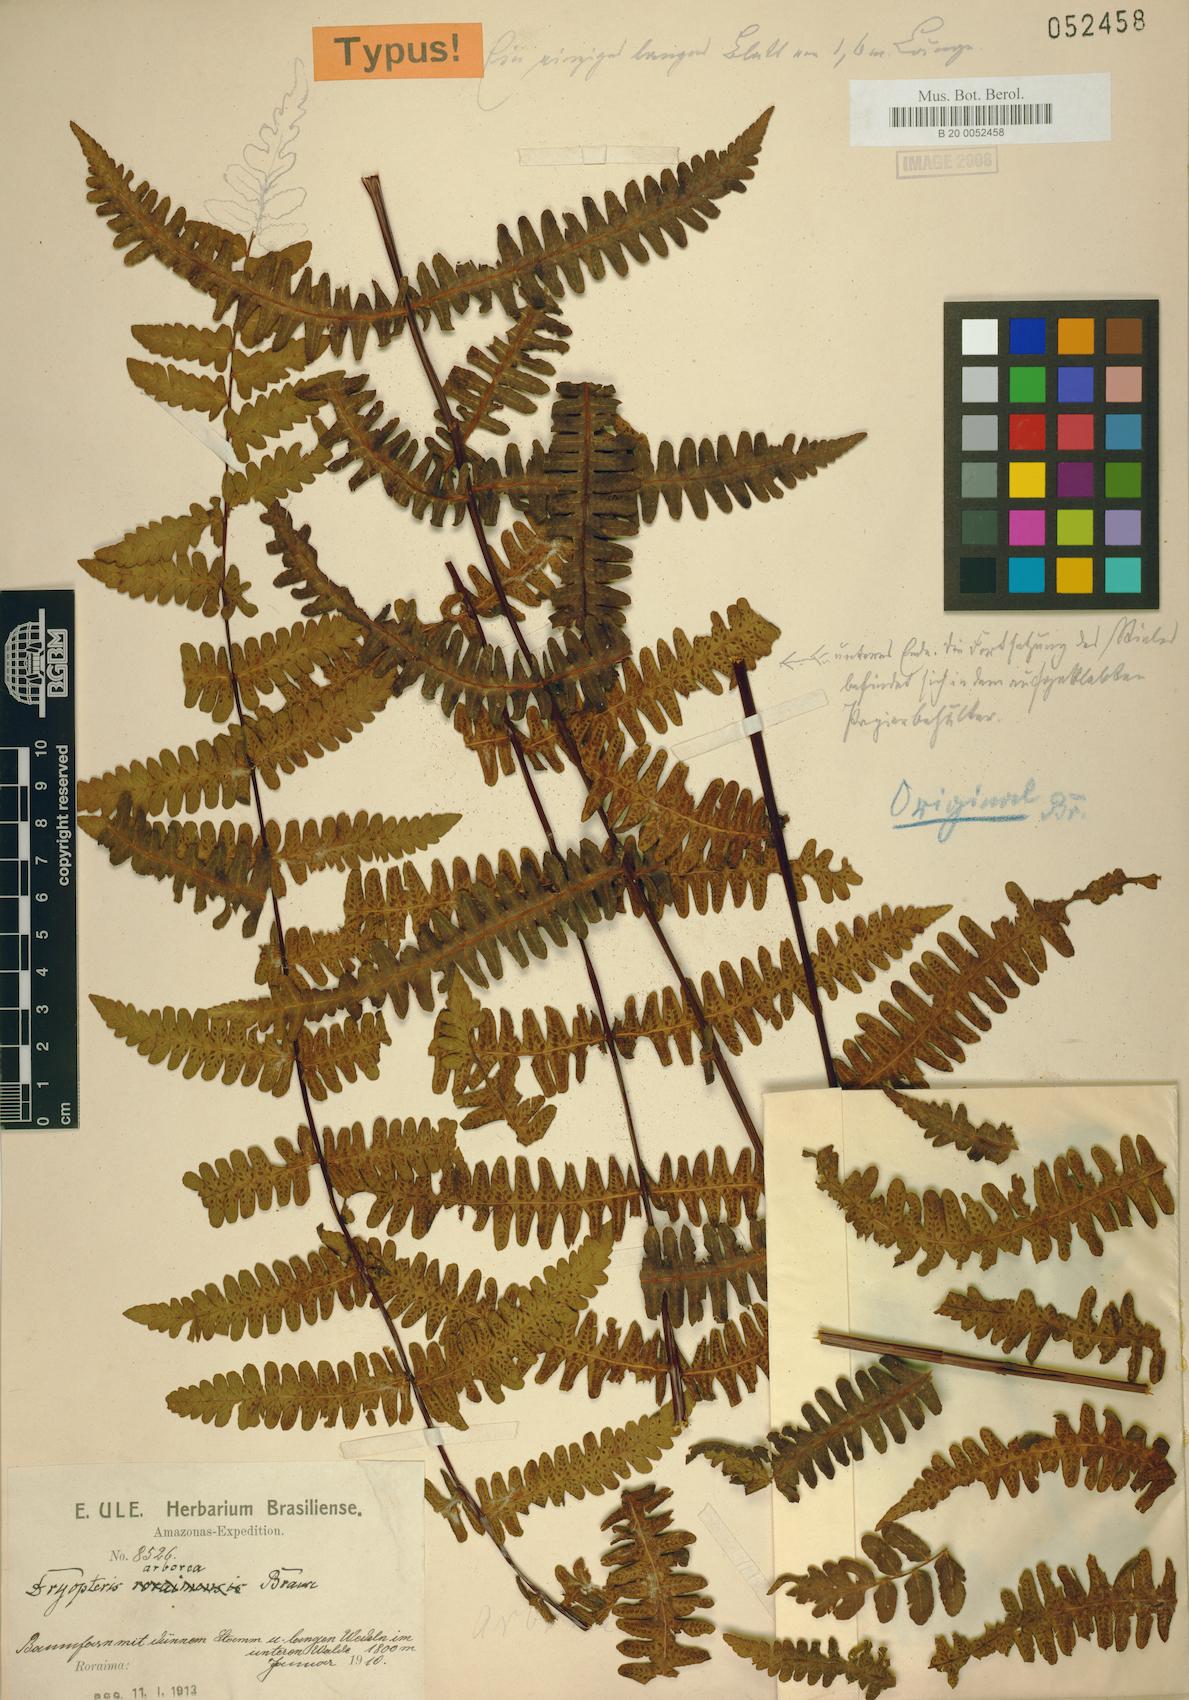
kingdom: Plantae
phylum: Tracheophyta
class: Polypodiopsida
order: Polypodiales
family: Thelypteridaceae
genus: Amauropelta
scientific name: Amauropelta arborea
